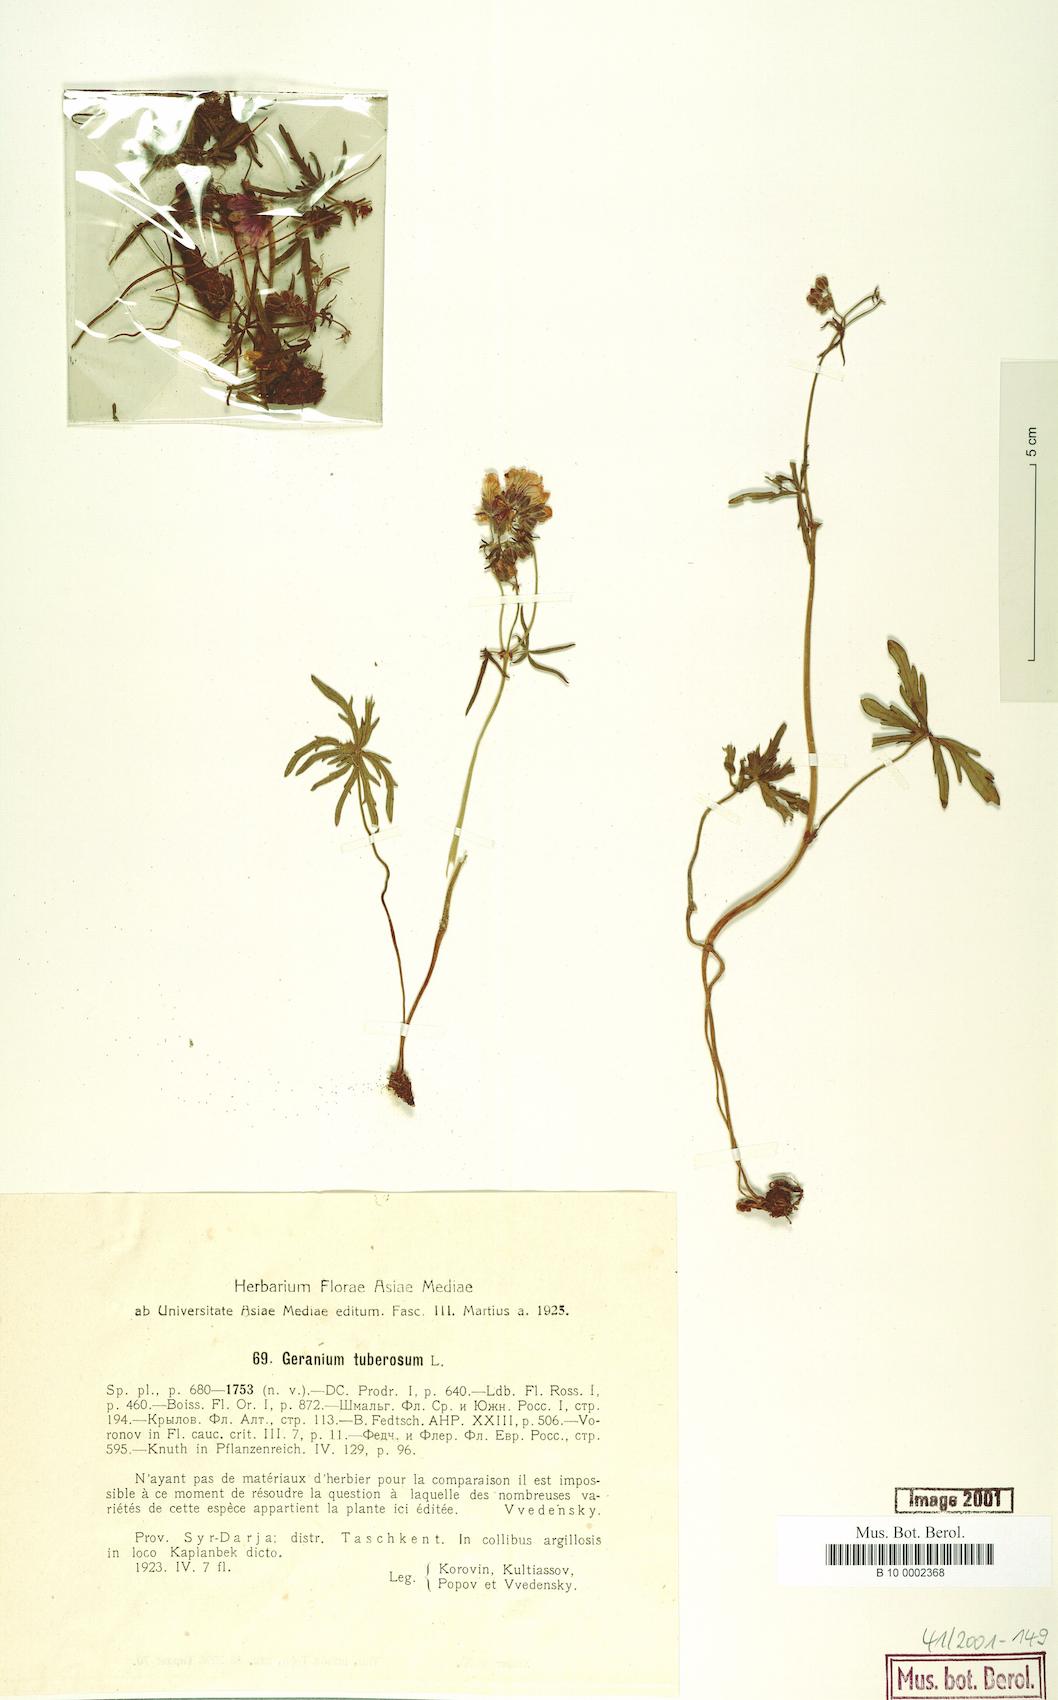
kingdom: Plantae
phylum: Tracheophyta
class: Magnoliopsida
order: Geraniales
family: Geraniaceae
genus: Geranium
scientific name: Geranium tuberosum
